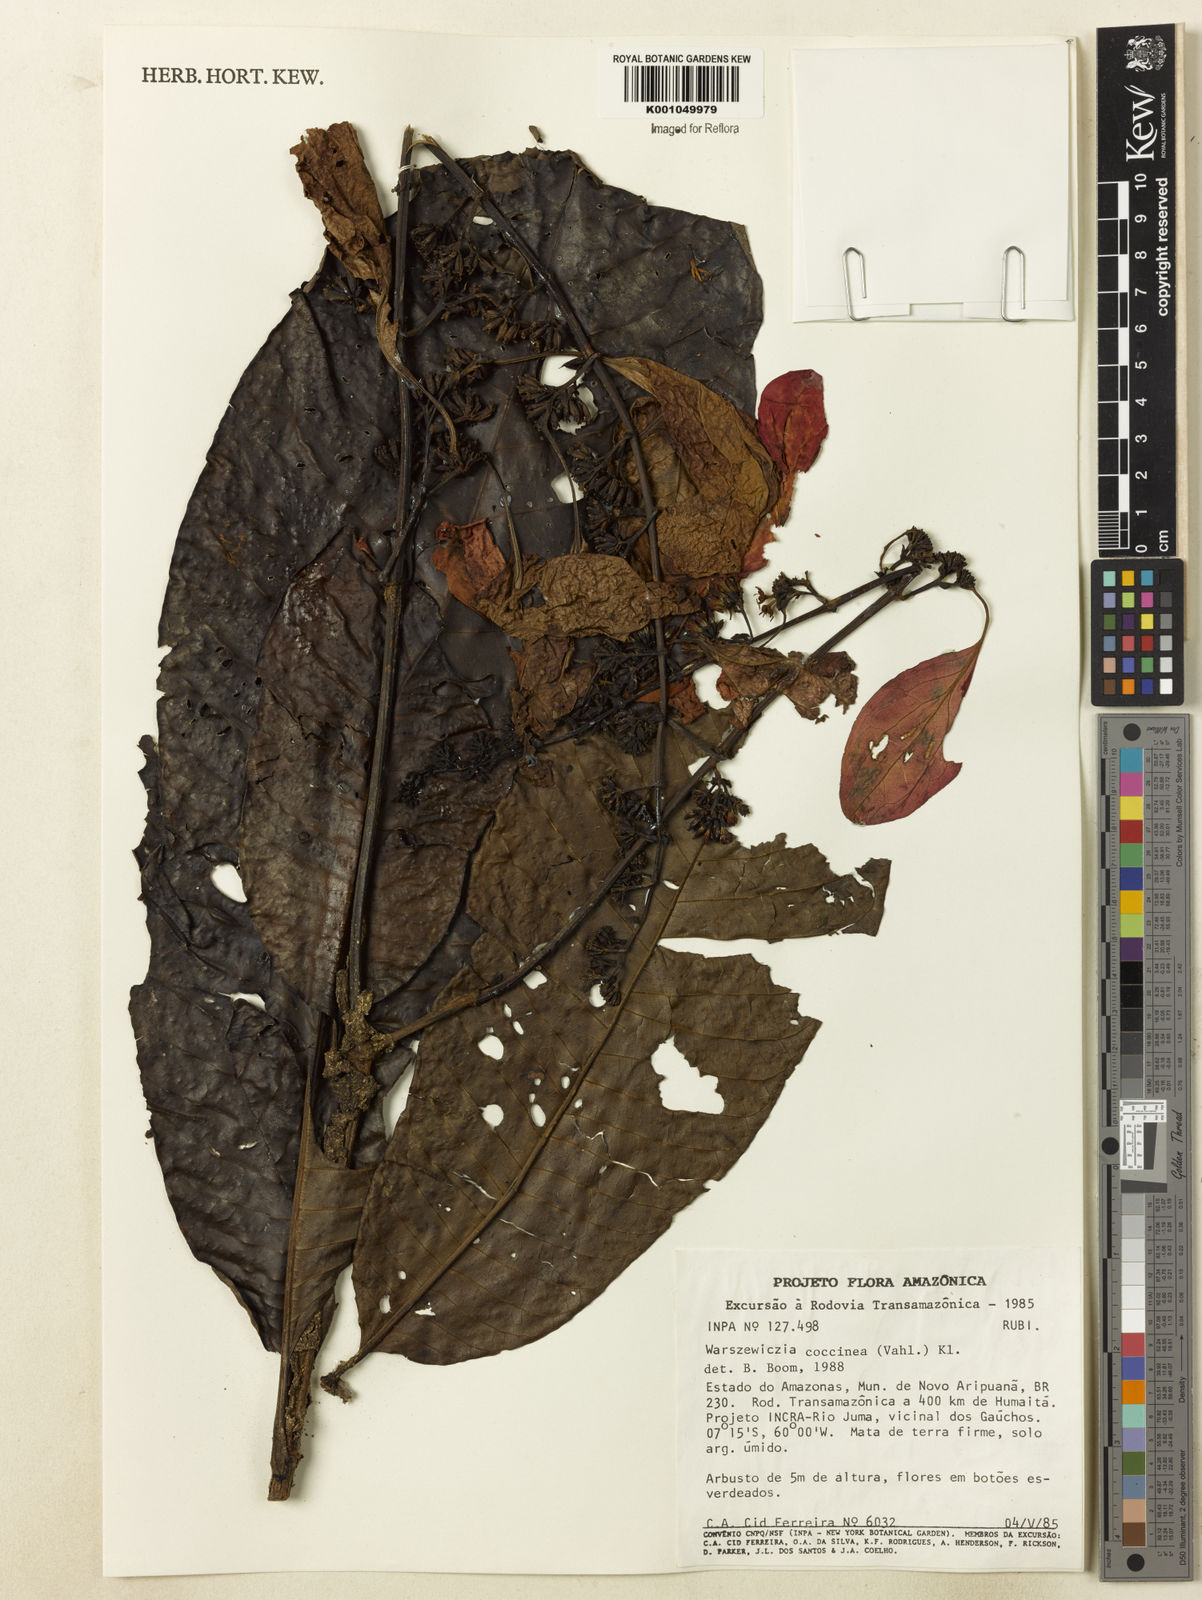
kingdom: Plantae
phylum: Tracheophyta
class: Magnoliopsida
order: Gentianales
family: Rubiaceae
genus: Warszewiczia
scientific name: Warszewiczia coccinea
